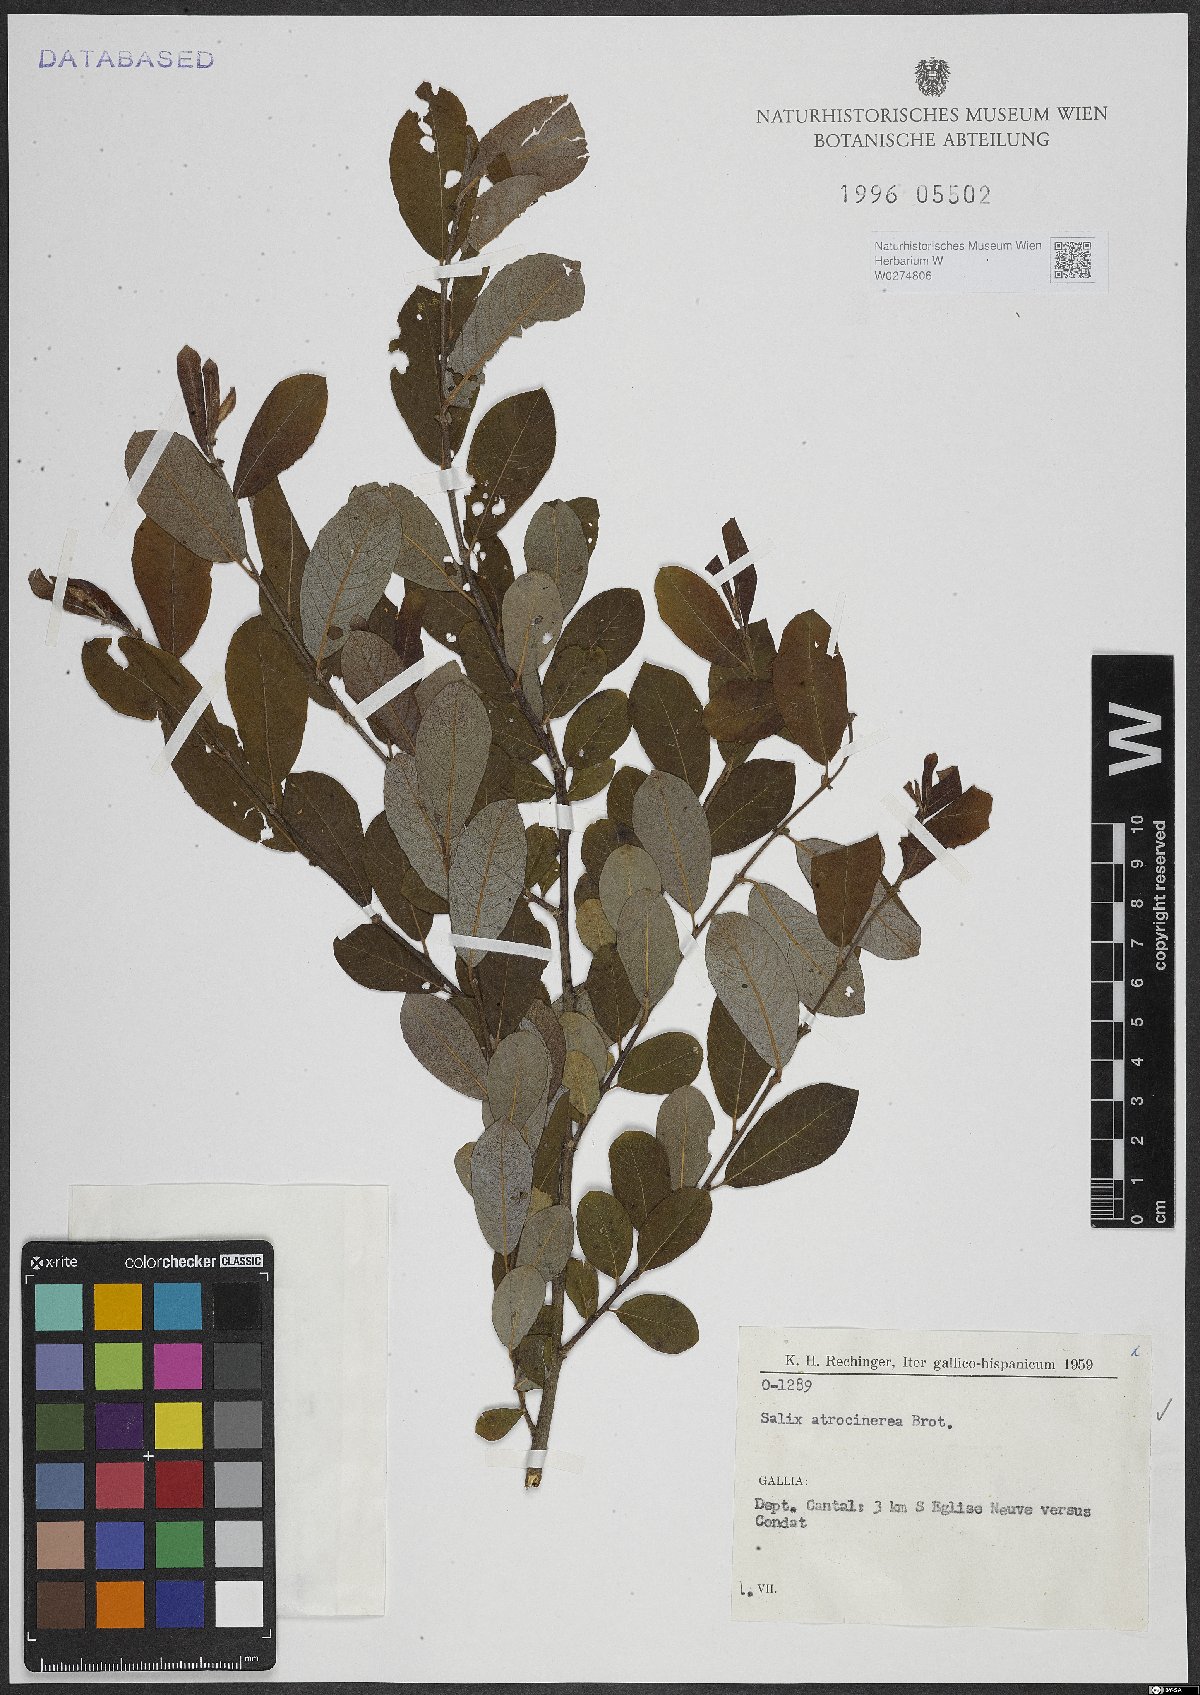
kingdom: Plantae
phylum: Tracheophyta
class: Magnoliopsida
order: Malpighiales
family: Salicaceae
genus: Salix
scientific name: Salix atrocinerea
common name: Rusty willow
